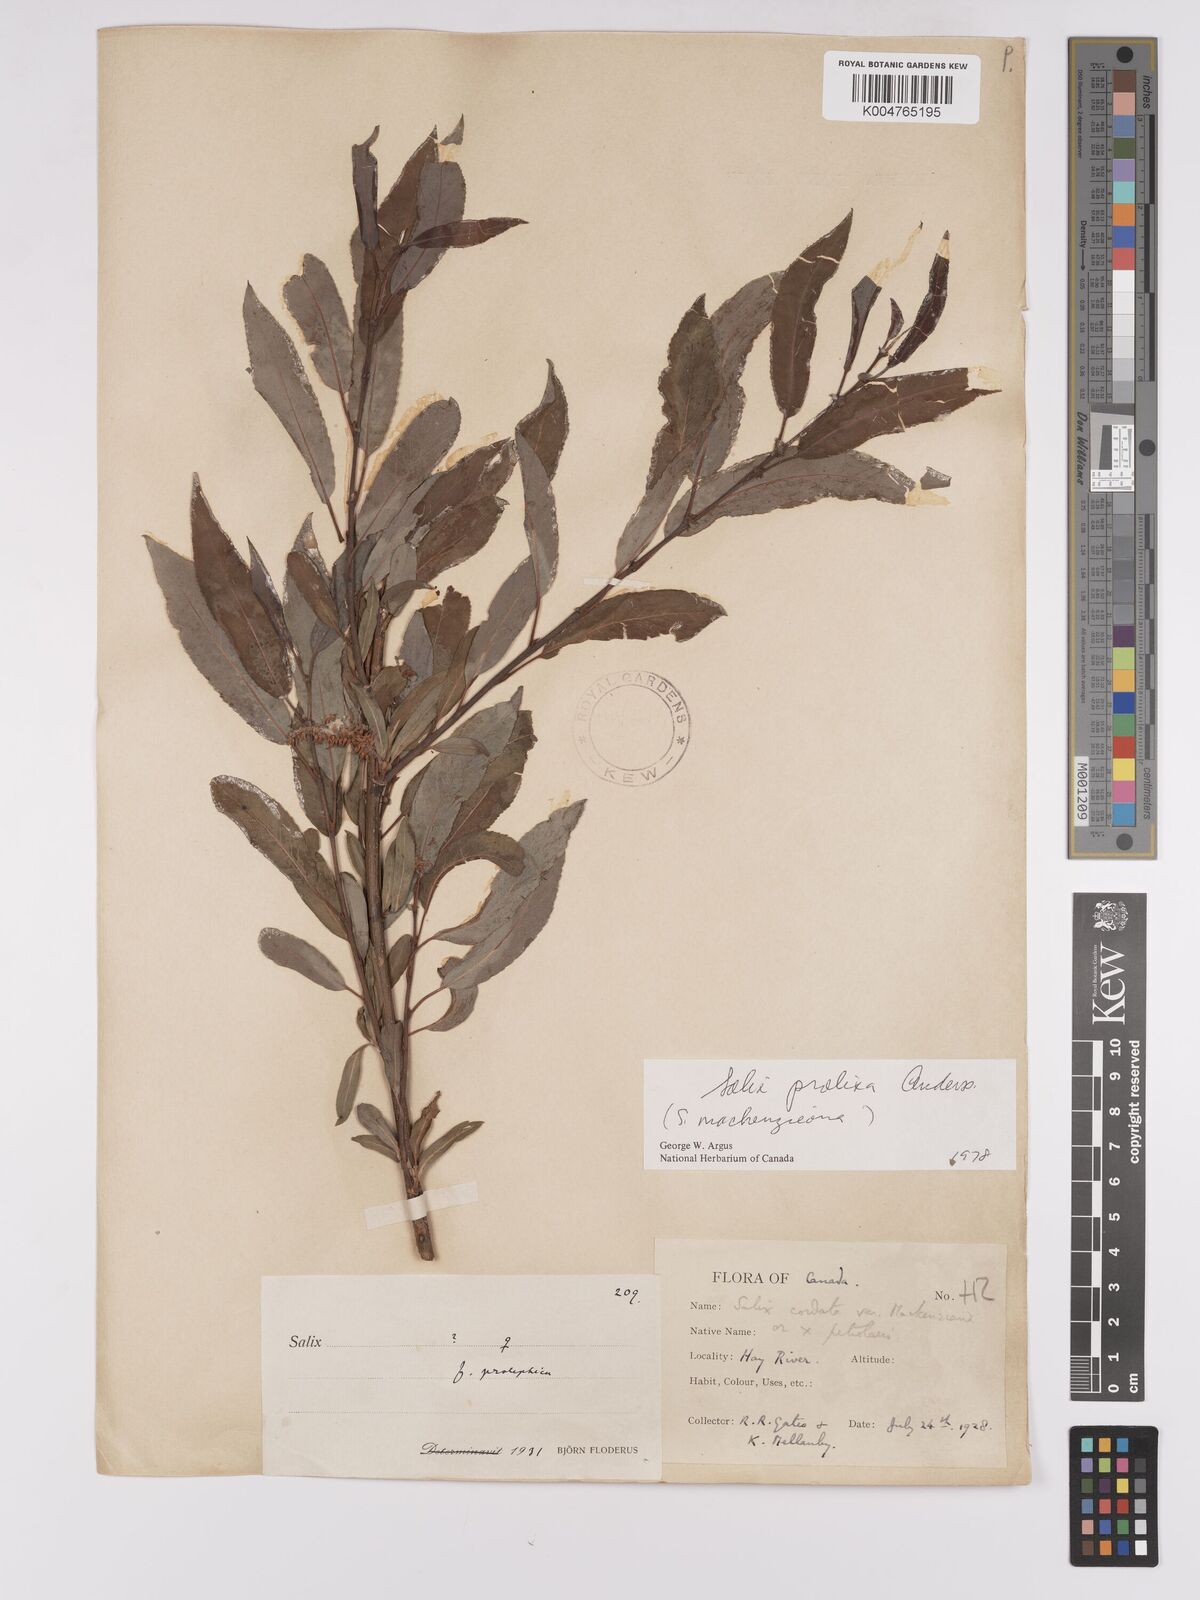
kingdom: Plantae
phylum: Tracheophyta
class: Magnoliopsida
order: Malpighiales
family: Salicaceae
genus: Salix
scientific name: Salix prolixa
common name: Mackenzie's willow
